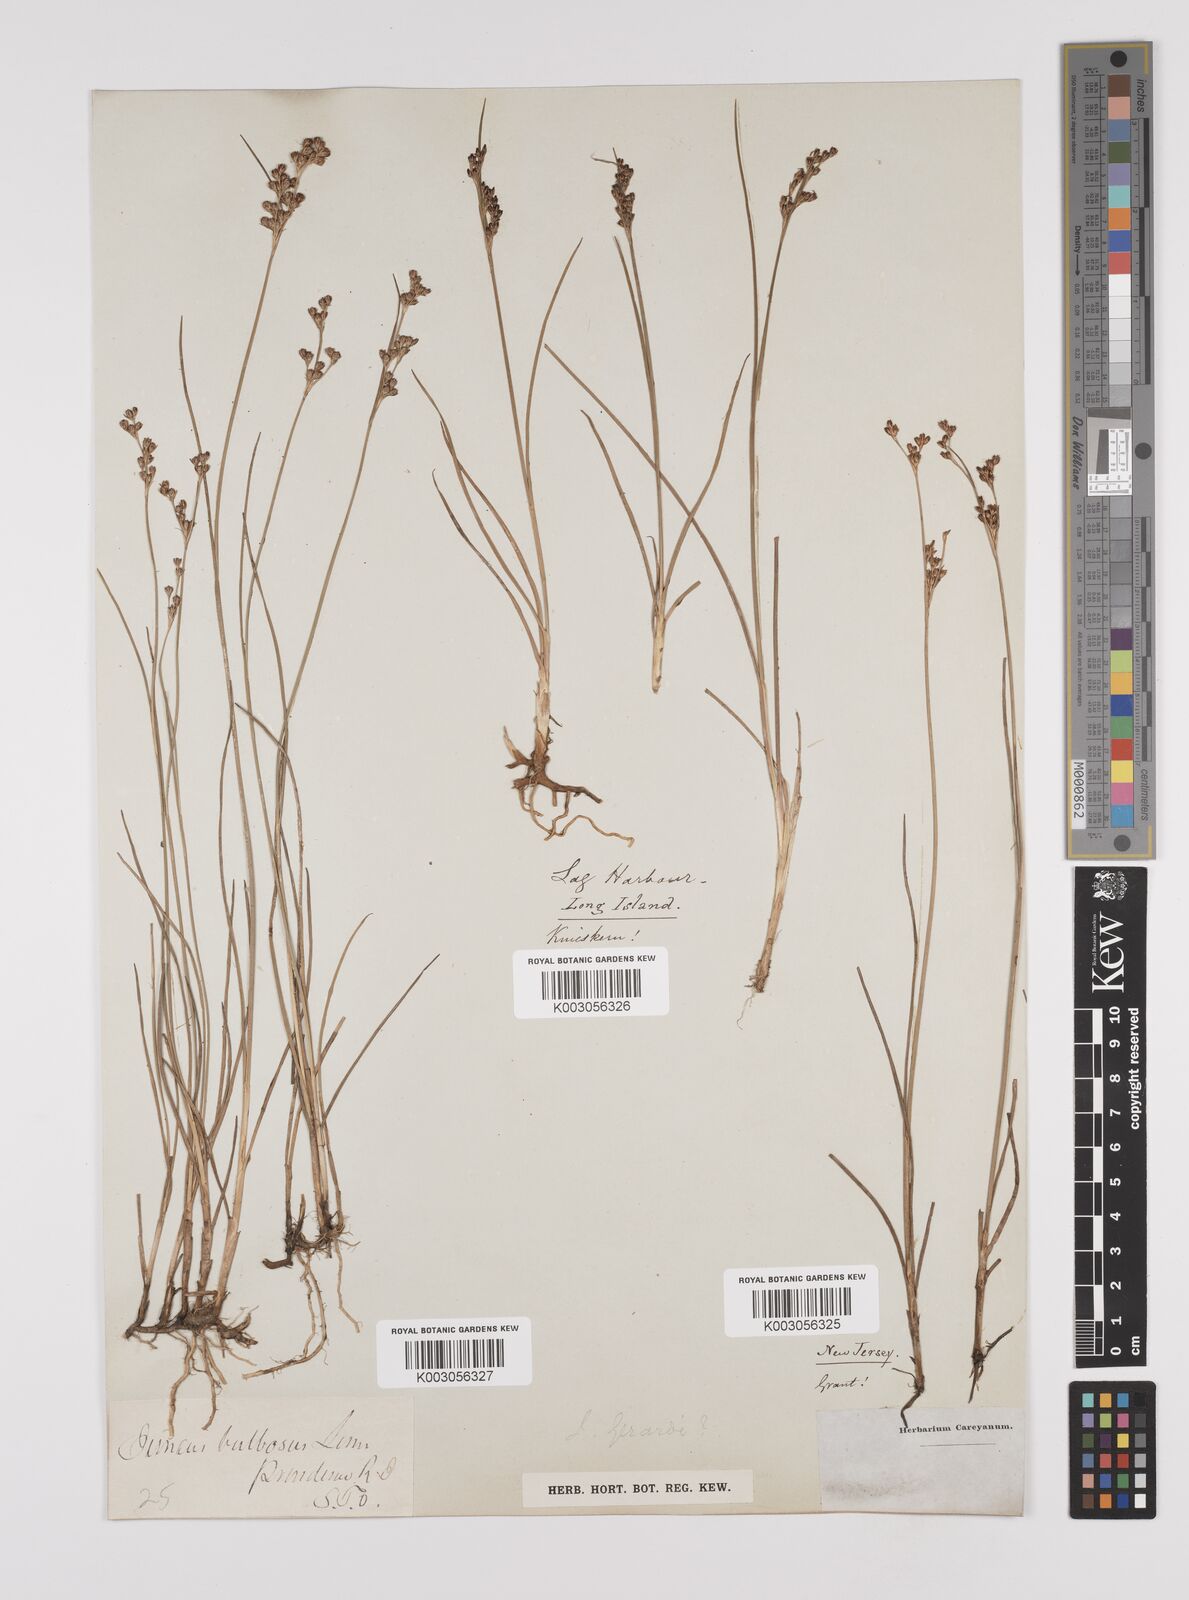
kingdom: Plantae
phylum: Tracheophyta
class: Liliopsida
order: Poales
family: Juncaceae
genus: Juncus
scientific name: Juncus gerardi
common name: Saltmarsh rush
